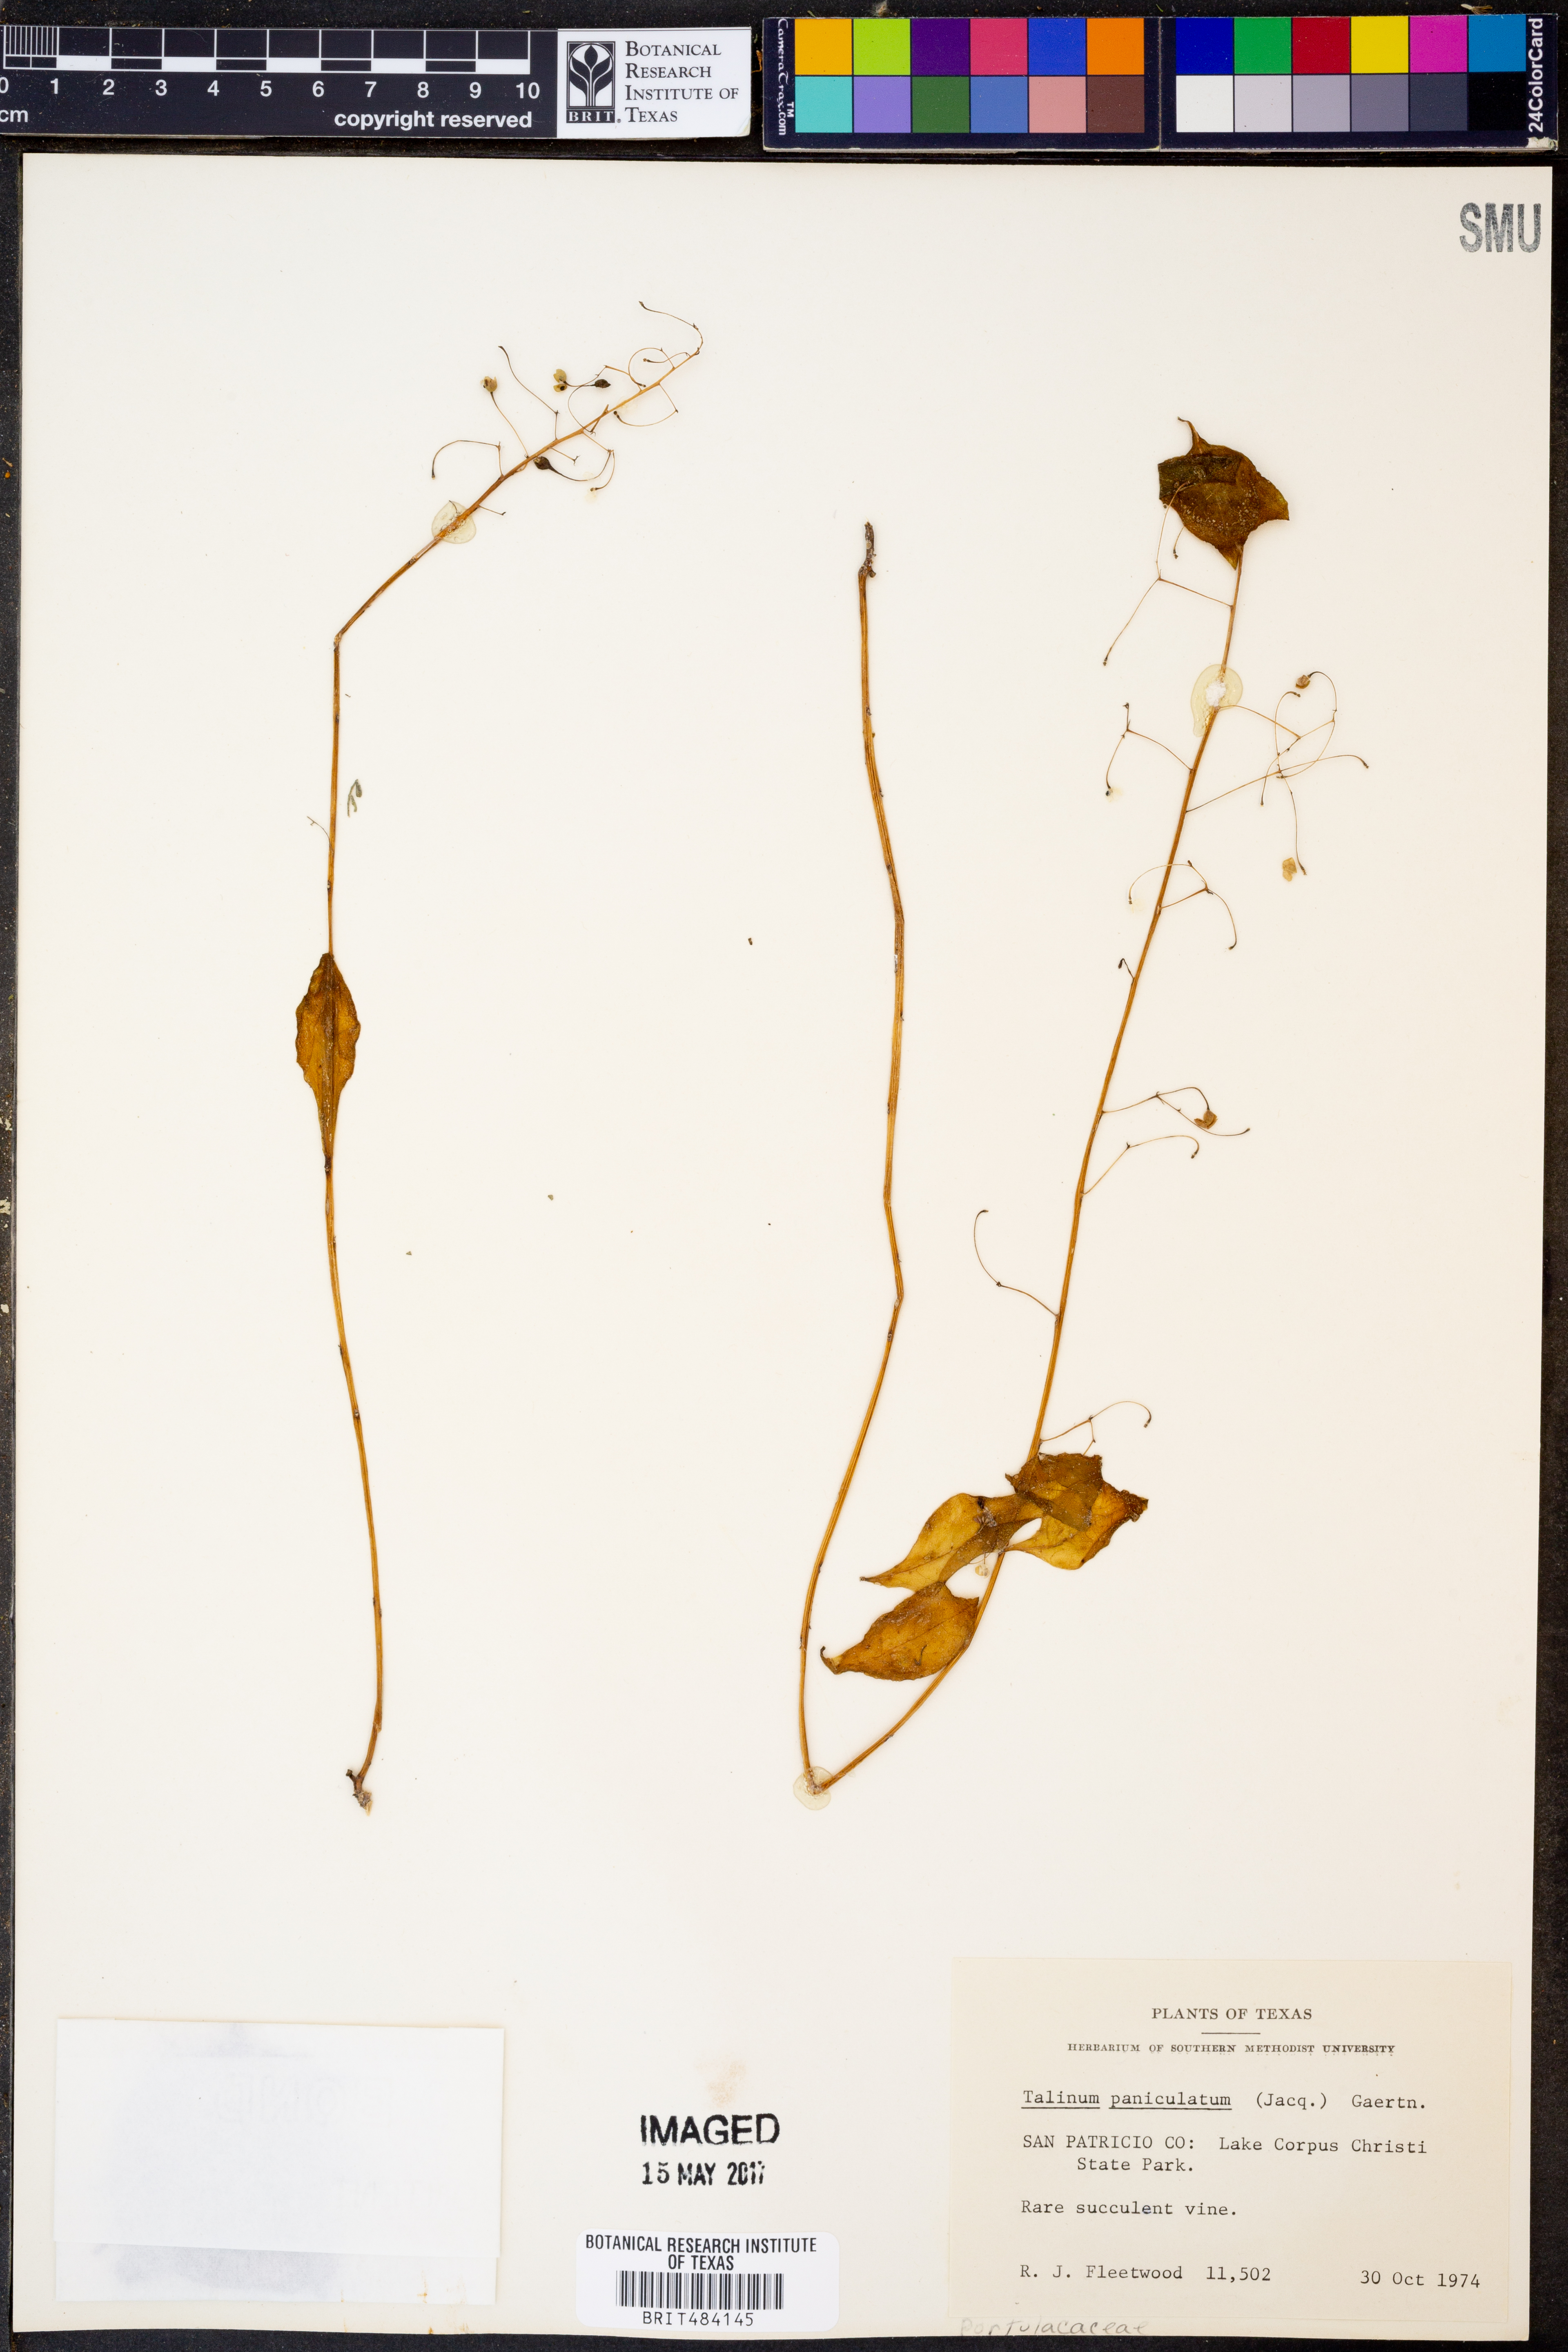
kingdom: Plantae
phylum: Tracheophyta
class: Magnoliopsida
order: Caryophyllales
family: Talinaceae
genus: Talinum
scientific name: Talinum paniculatum
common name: Jewels of opar
